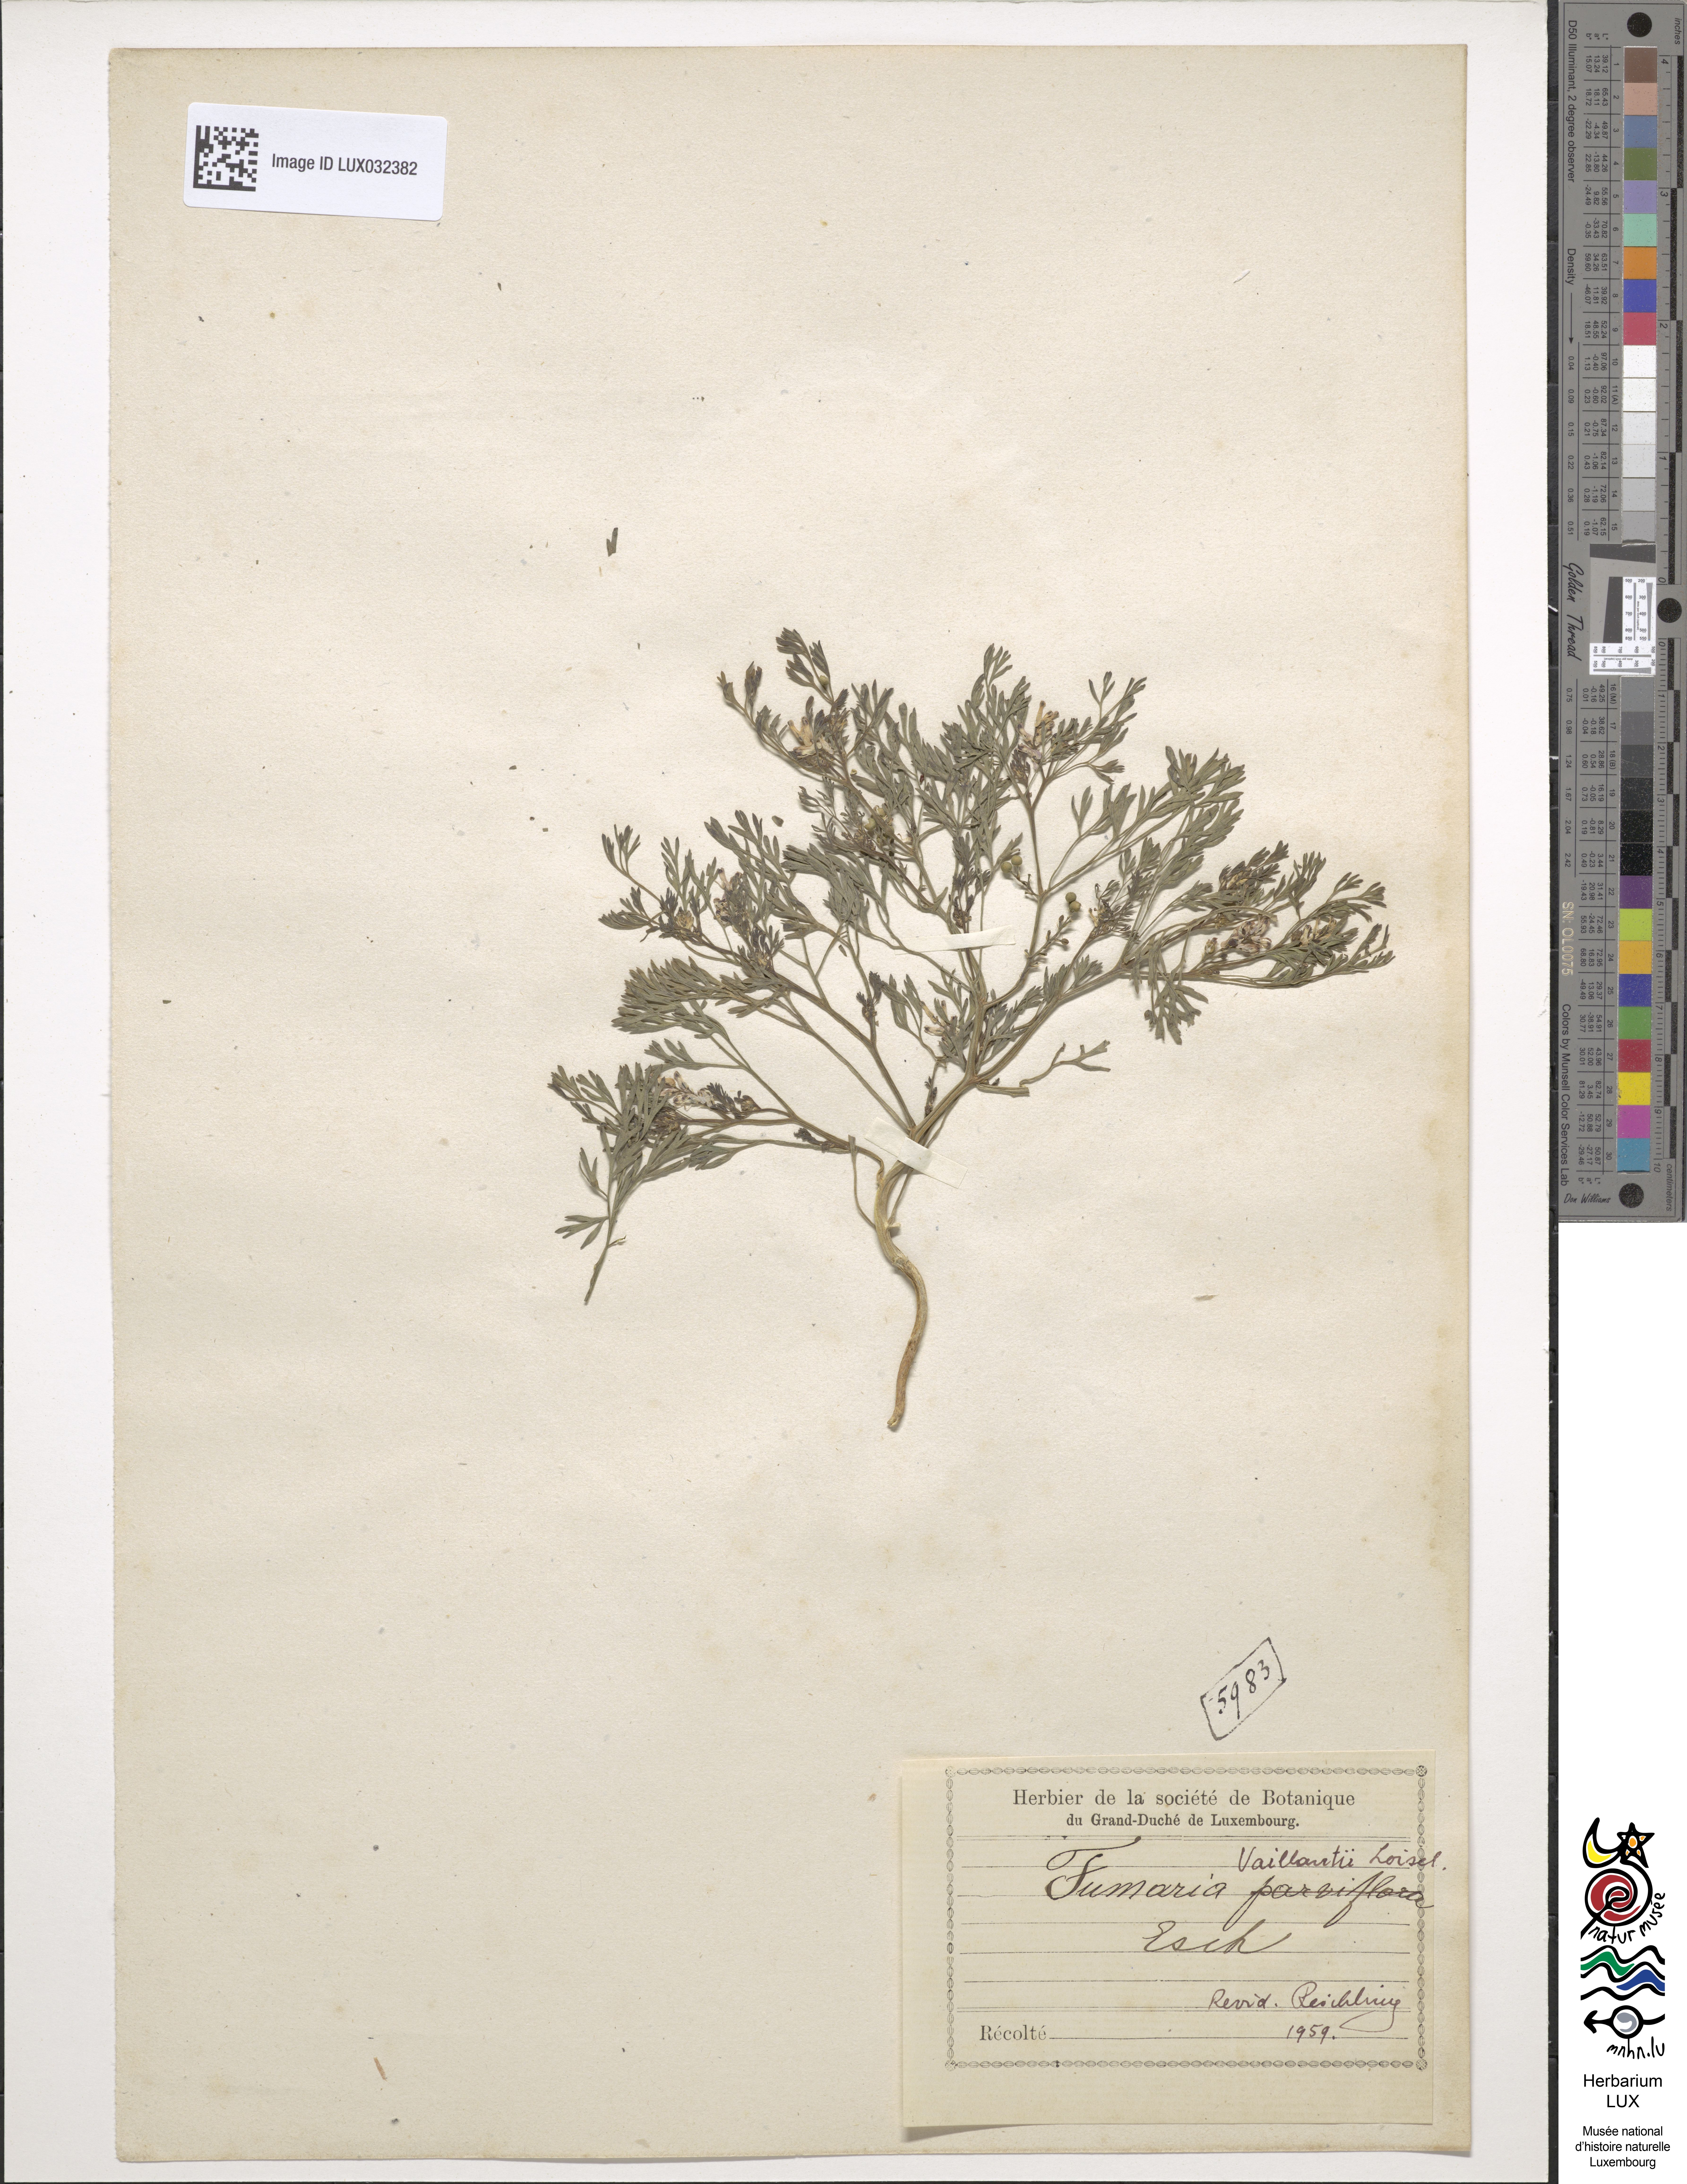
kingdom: Plantae
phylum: Tracheophyta
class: Magnoliopsida
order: Ranunculales
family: Papaveraceae
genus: Fumaria
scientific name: Fumaria vaillantii
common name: Few-flowered fumitory
